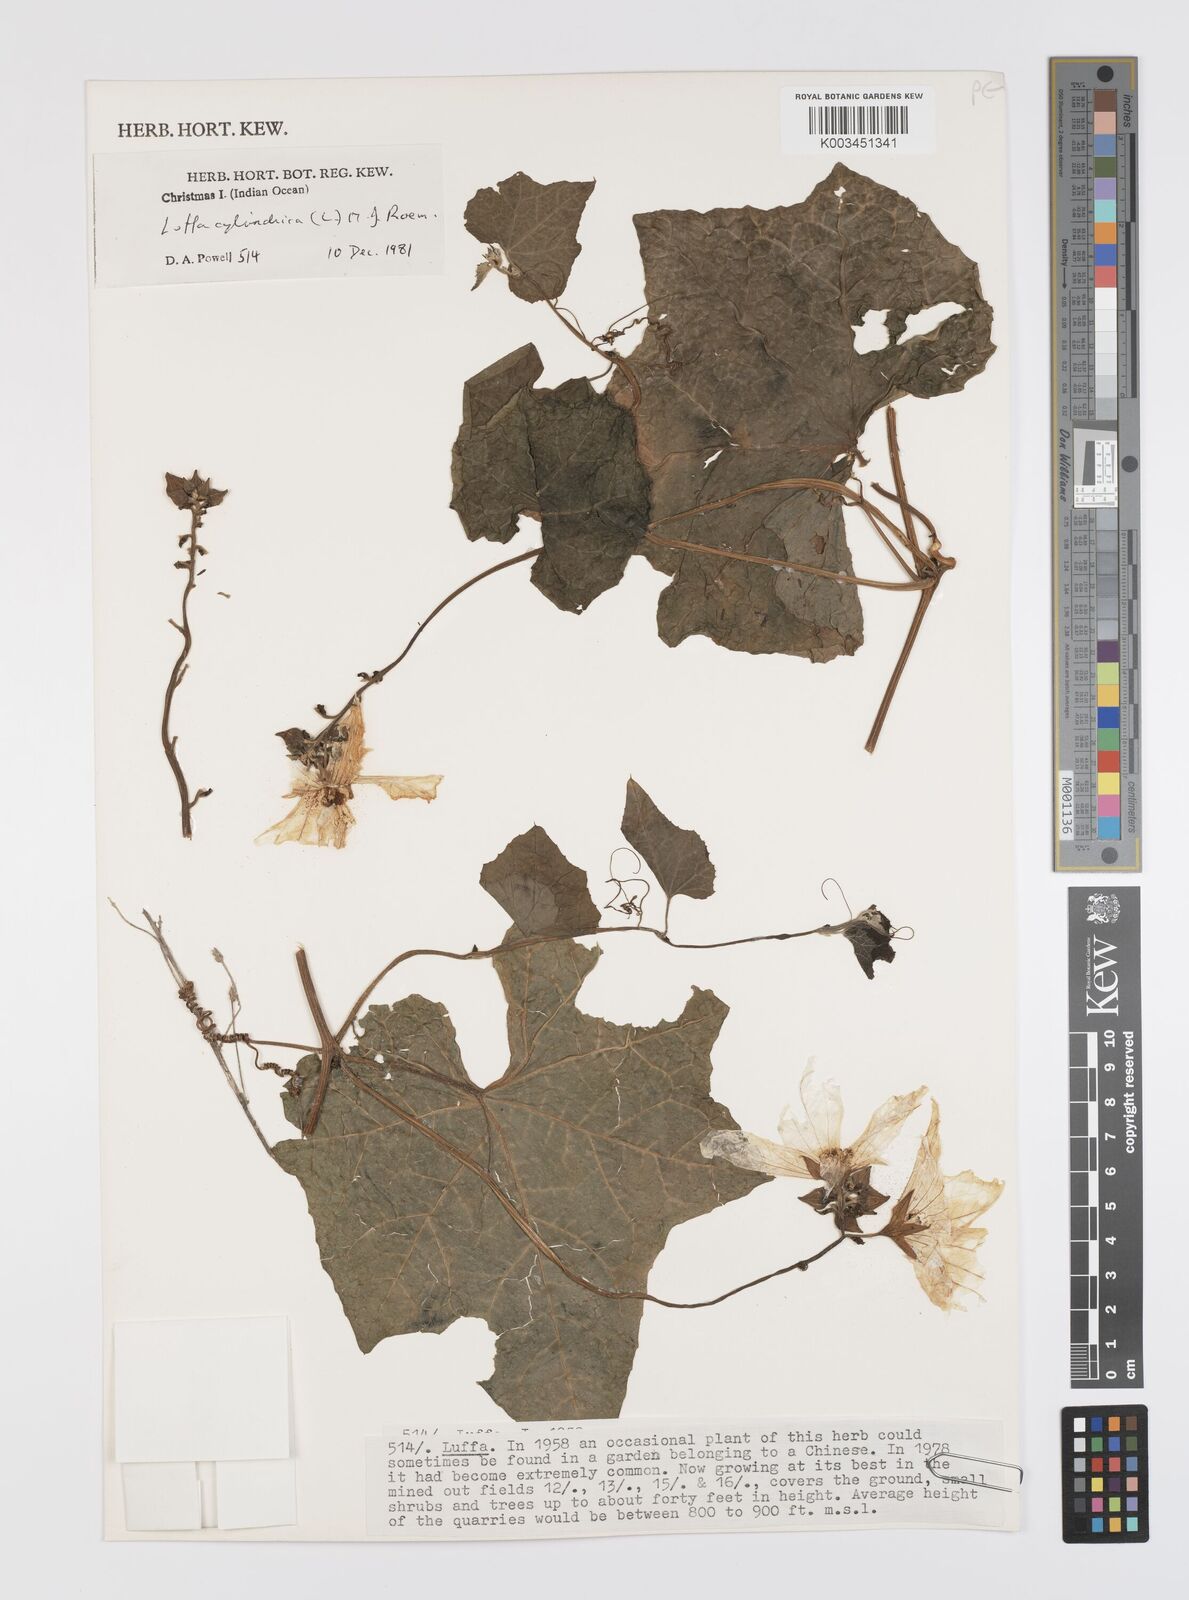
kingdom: Plantae
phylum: Tracheophyta
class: Magnoliopsida
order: Cucurbitales
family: Cucurbitaceae
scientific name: Cucurbitaceae
